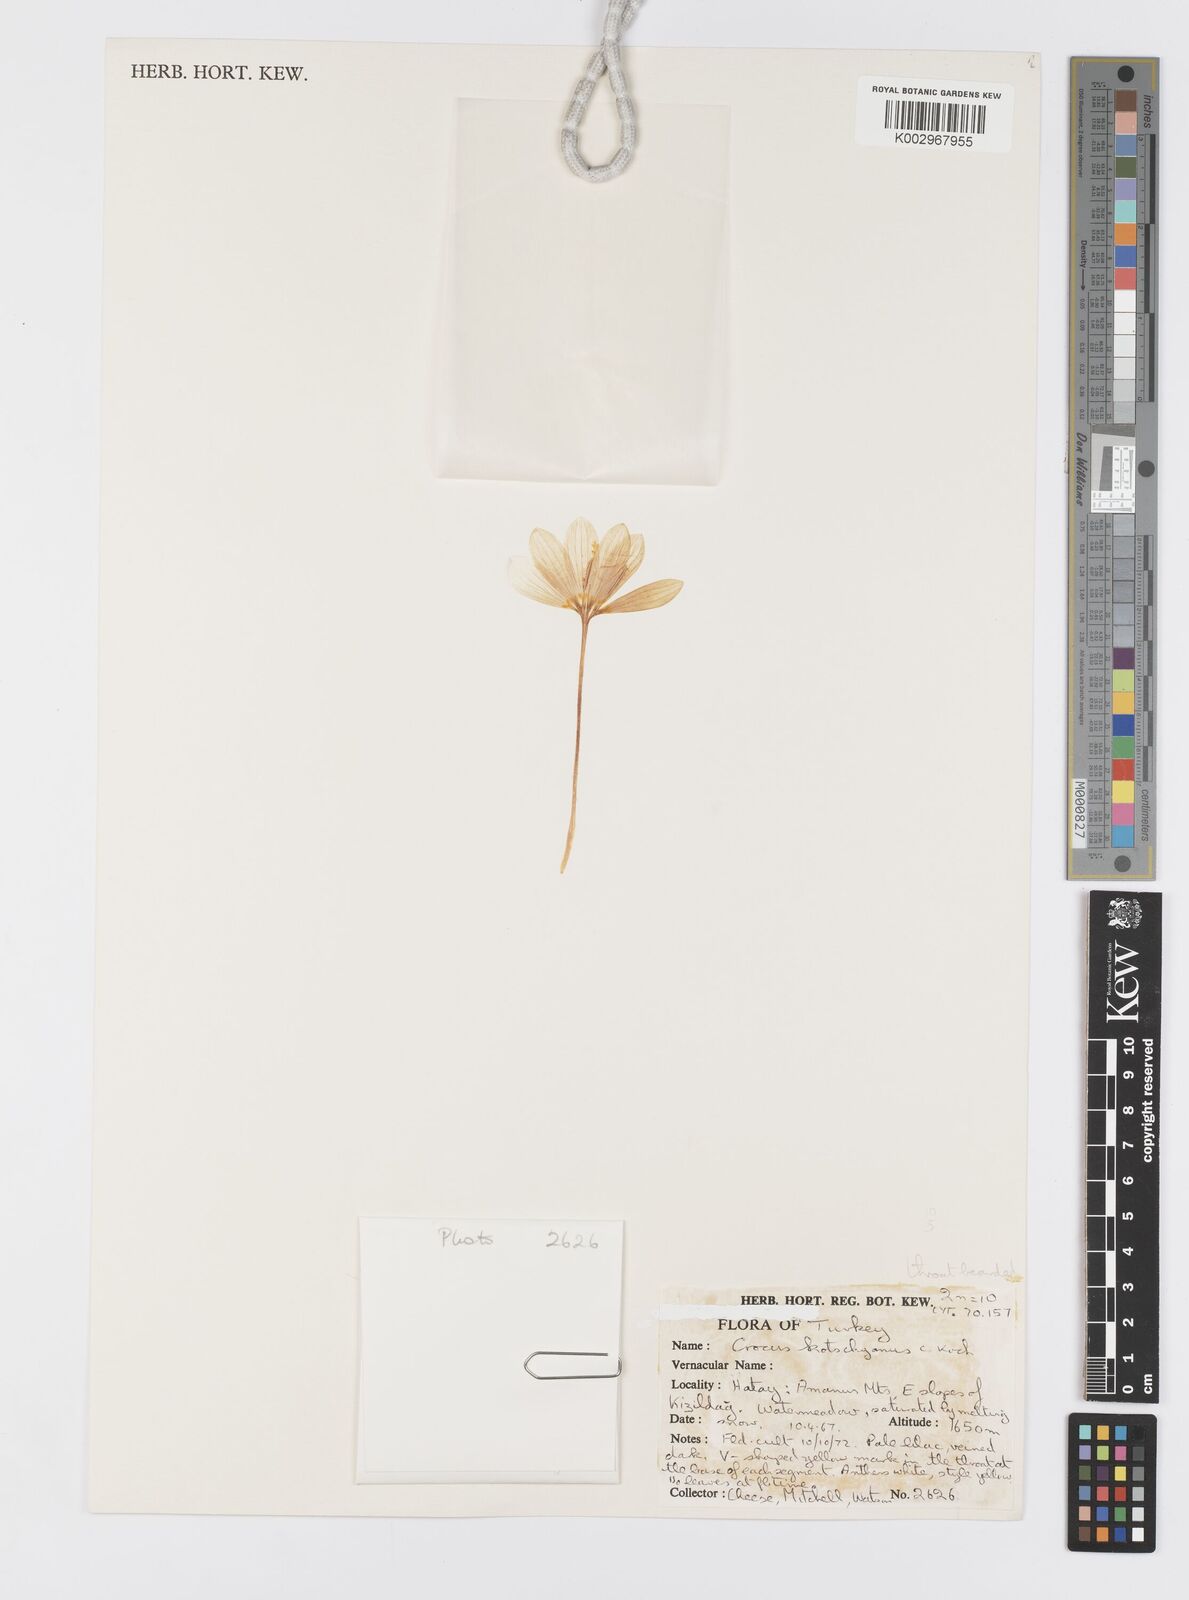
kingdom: Plantae
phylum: Tracheophyta
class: Liliopsida
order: Asparagales
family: Iridaceae
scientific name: Iridaceae
